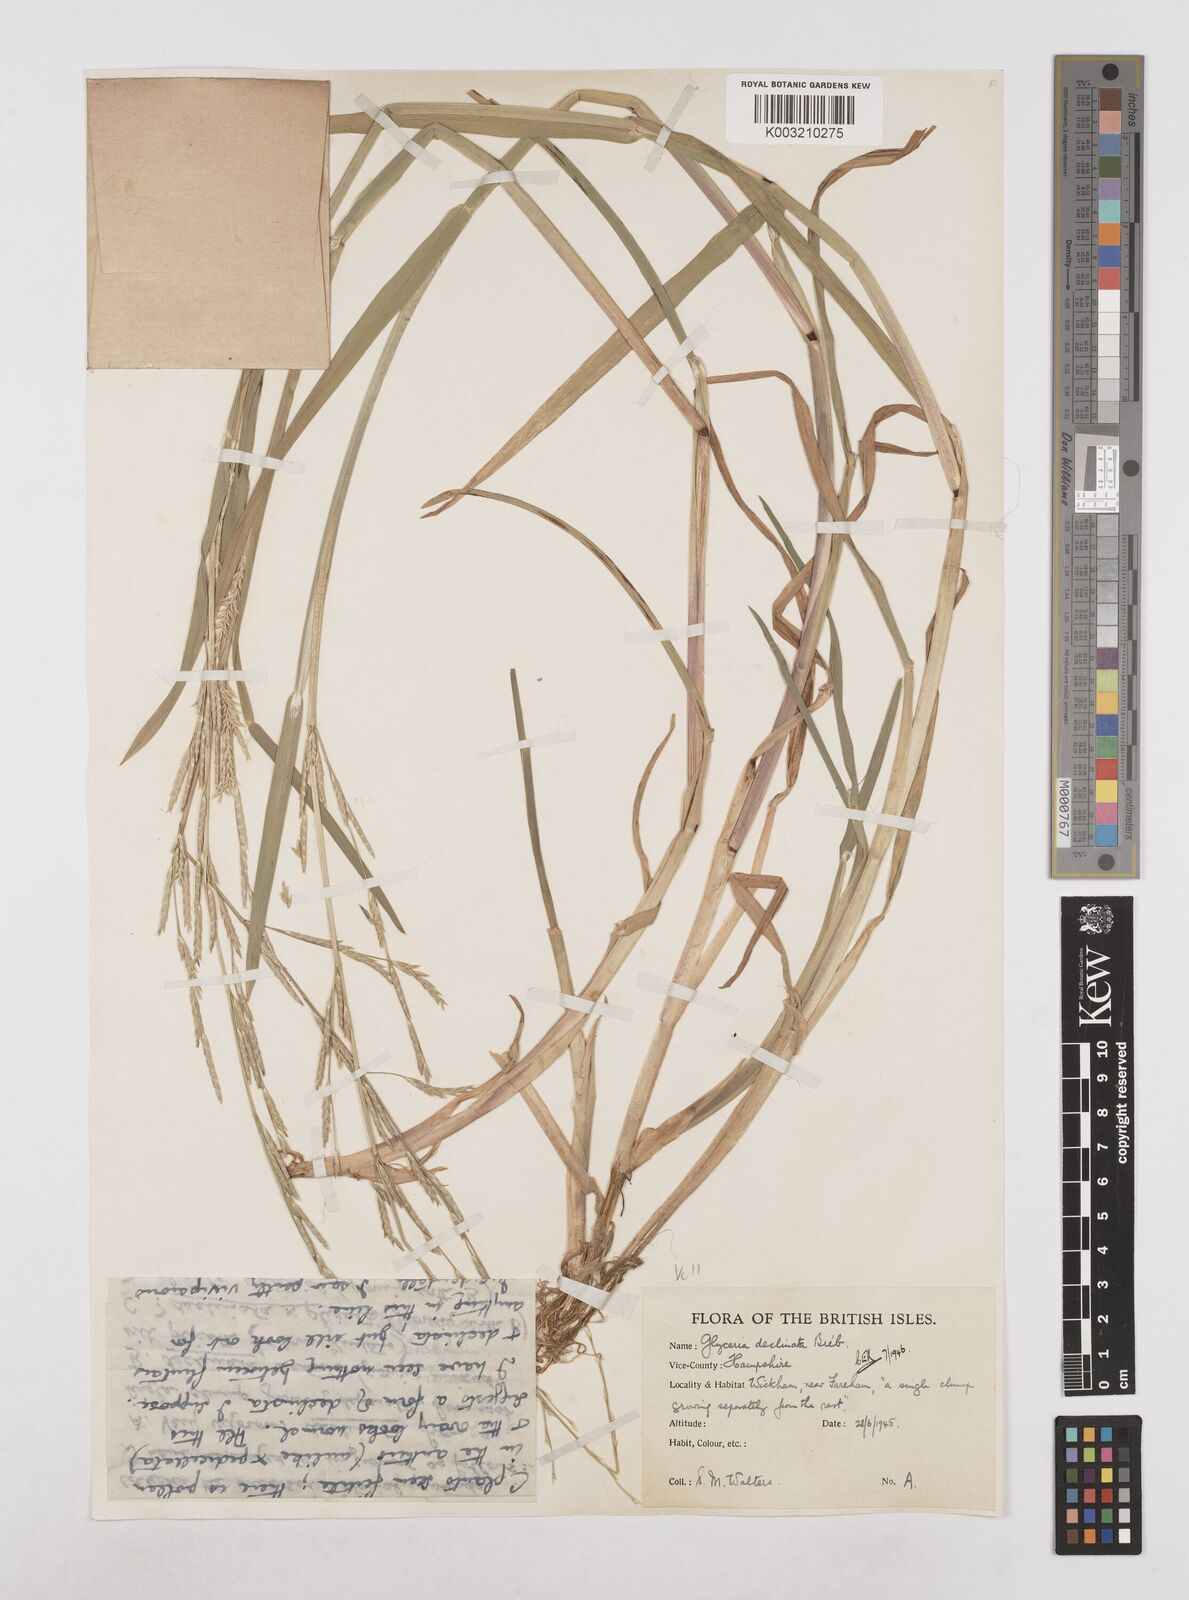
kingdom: Plantae
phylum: Tracheophyta
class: Liliopsida
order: Poales
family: Poaceae
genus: Glyceria
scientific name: Glyceria declinata
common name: Small sweet-grass
